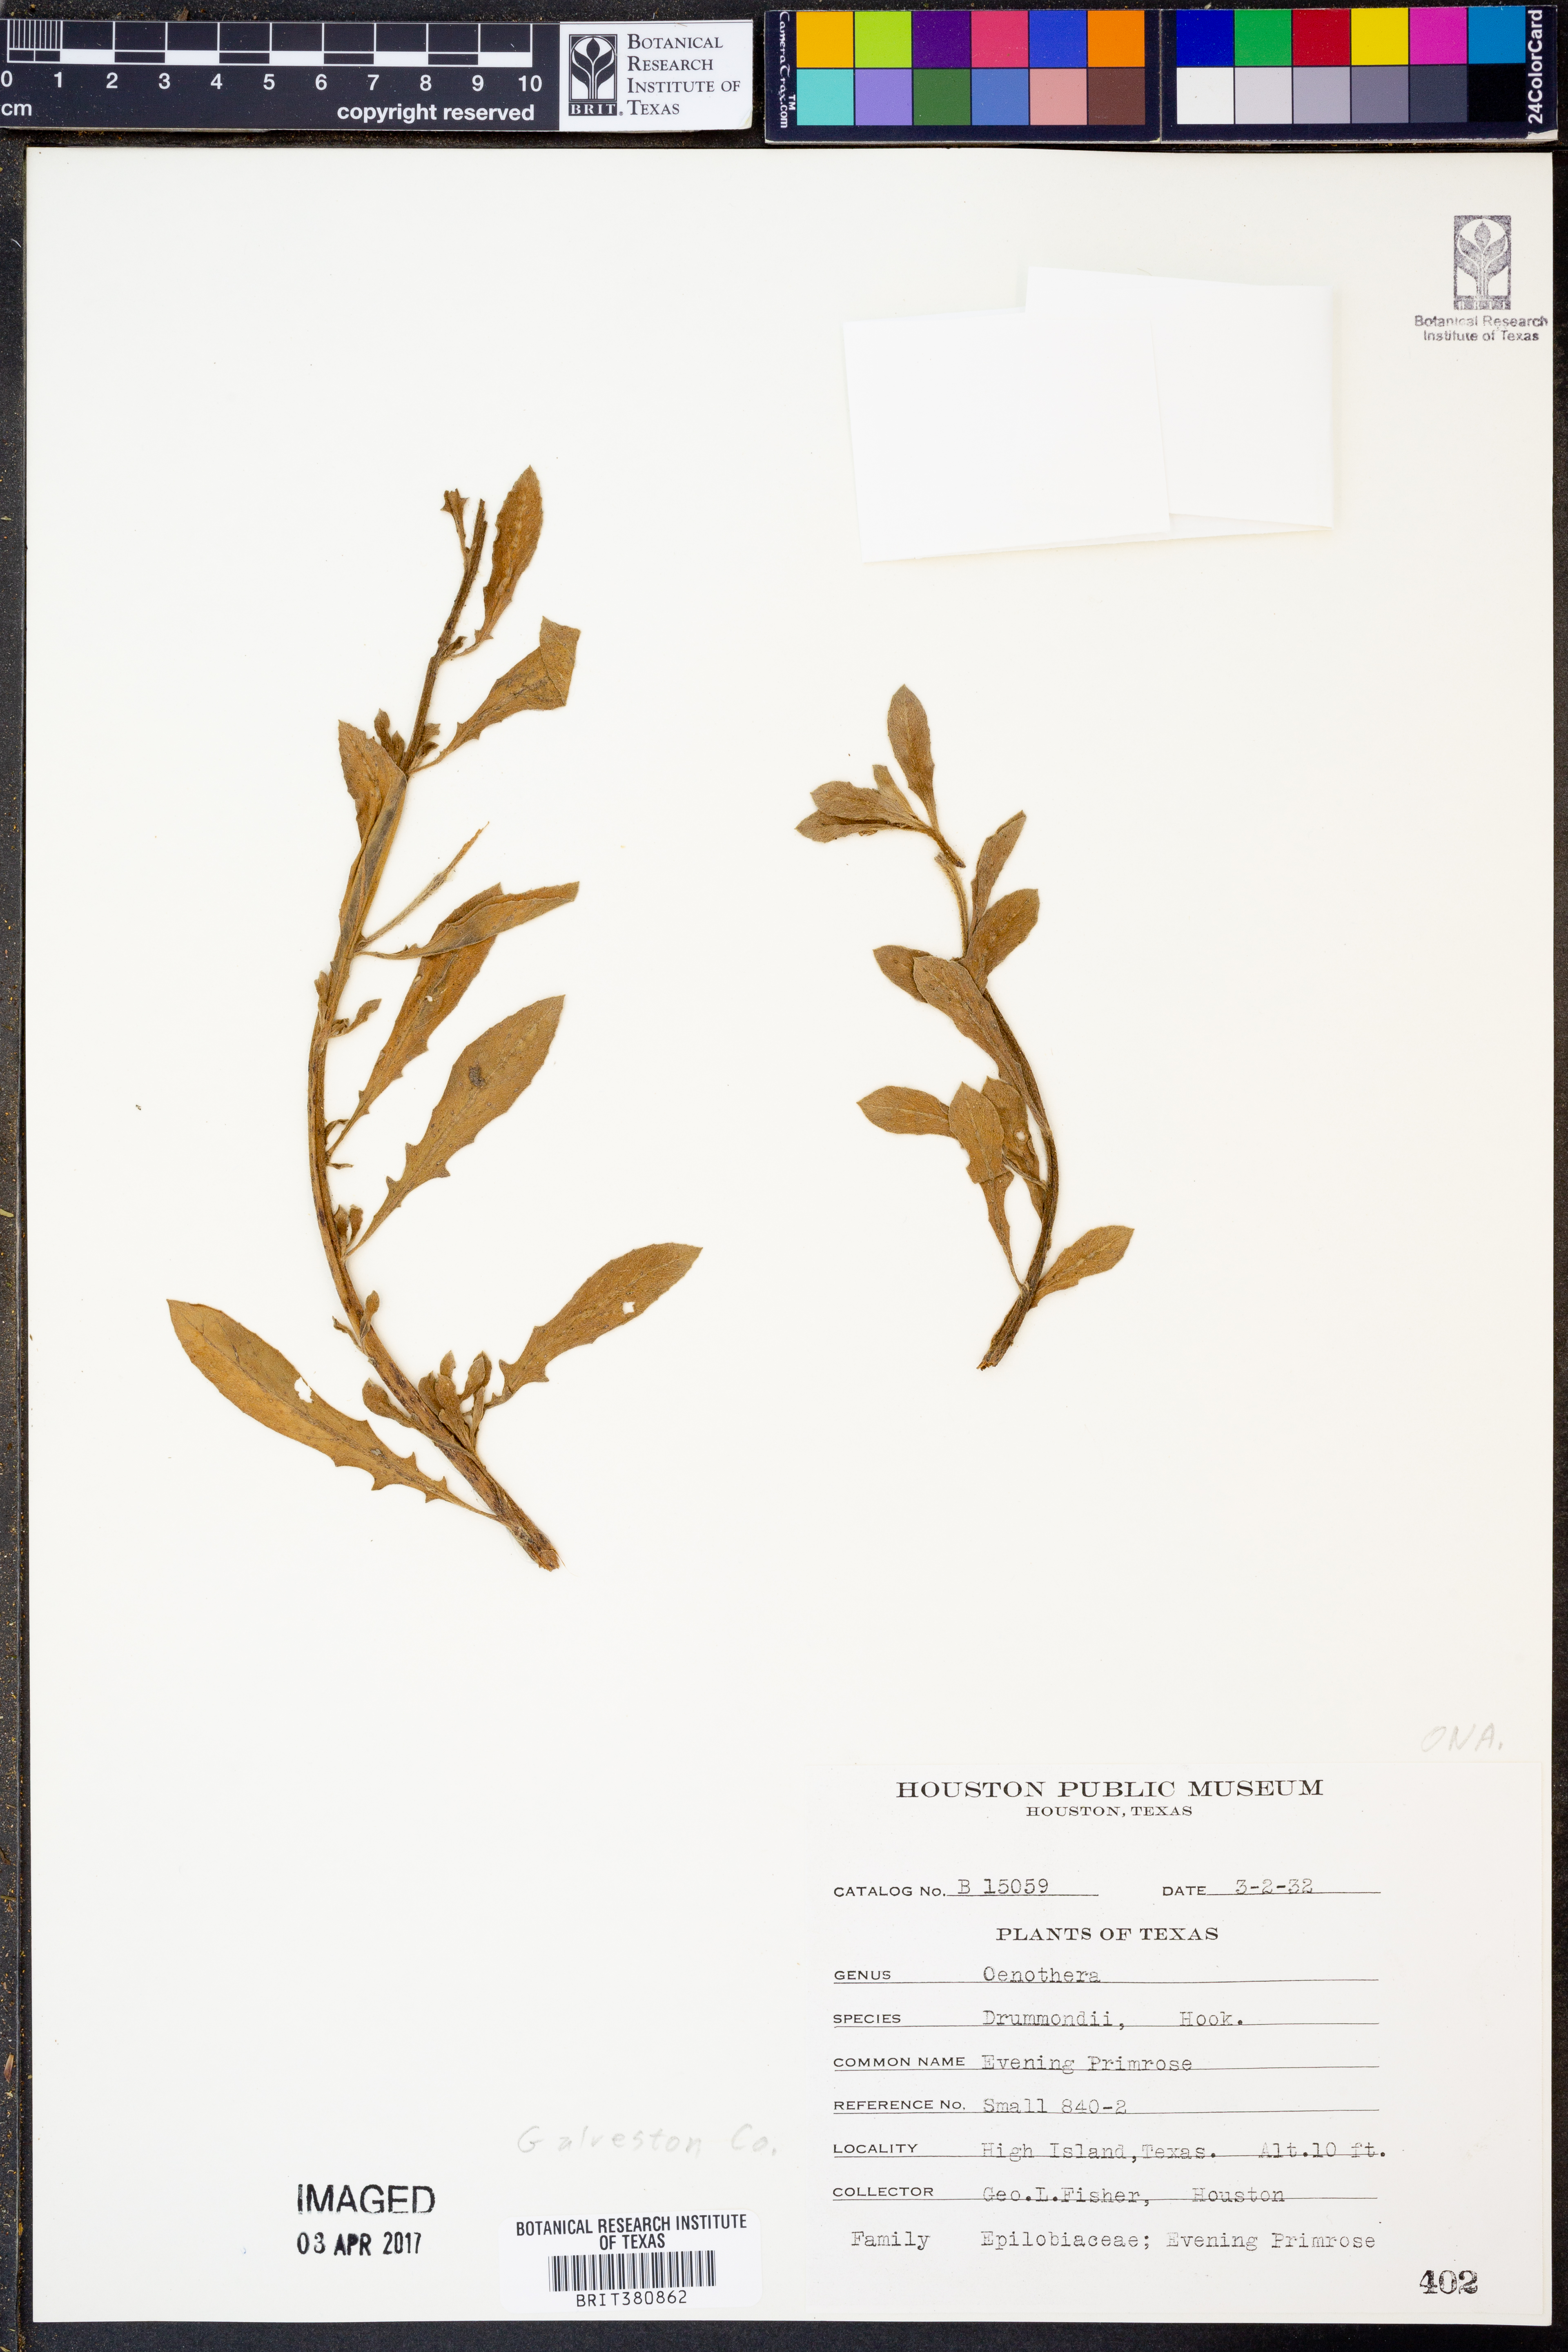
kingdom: Plantae
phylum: Tracheophyta
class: Magnoliopsida
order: Myrtales
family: Onagraceae
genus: Oenothera
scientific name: Oenothera drummondii
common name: Beach evening-primrose
